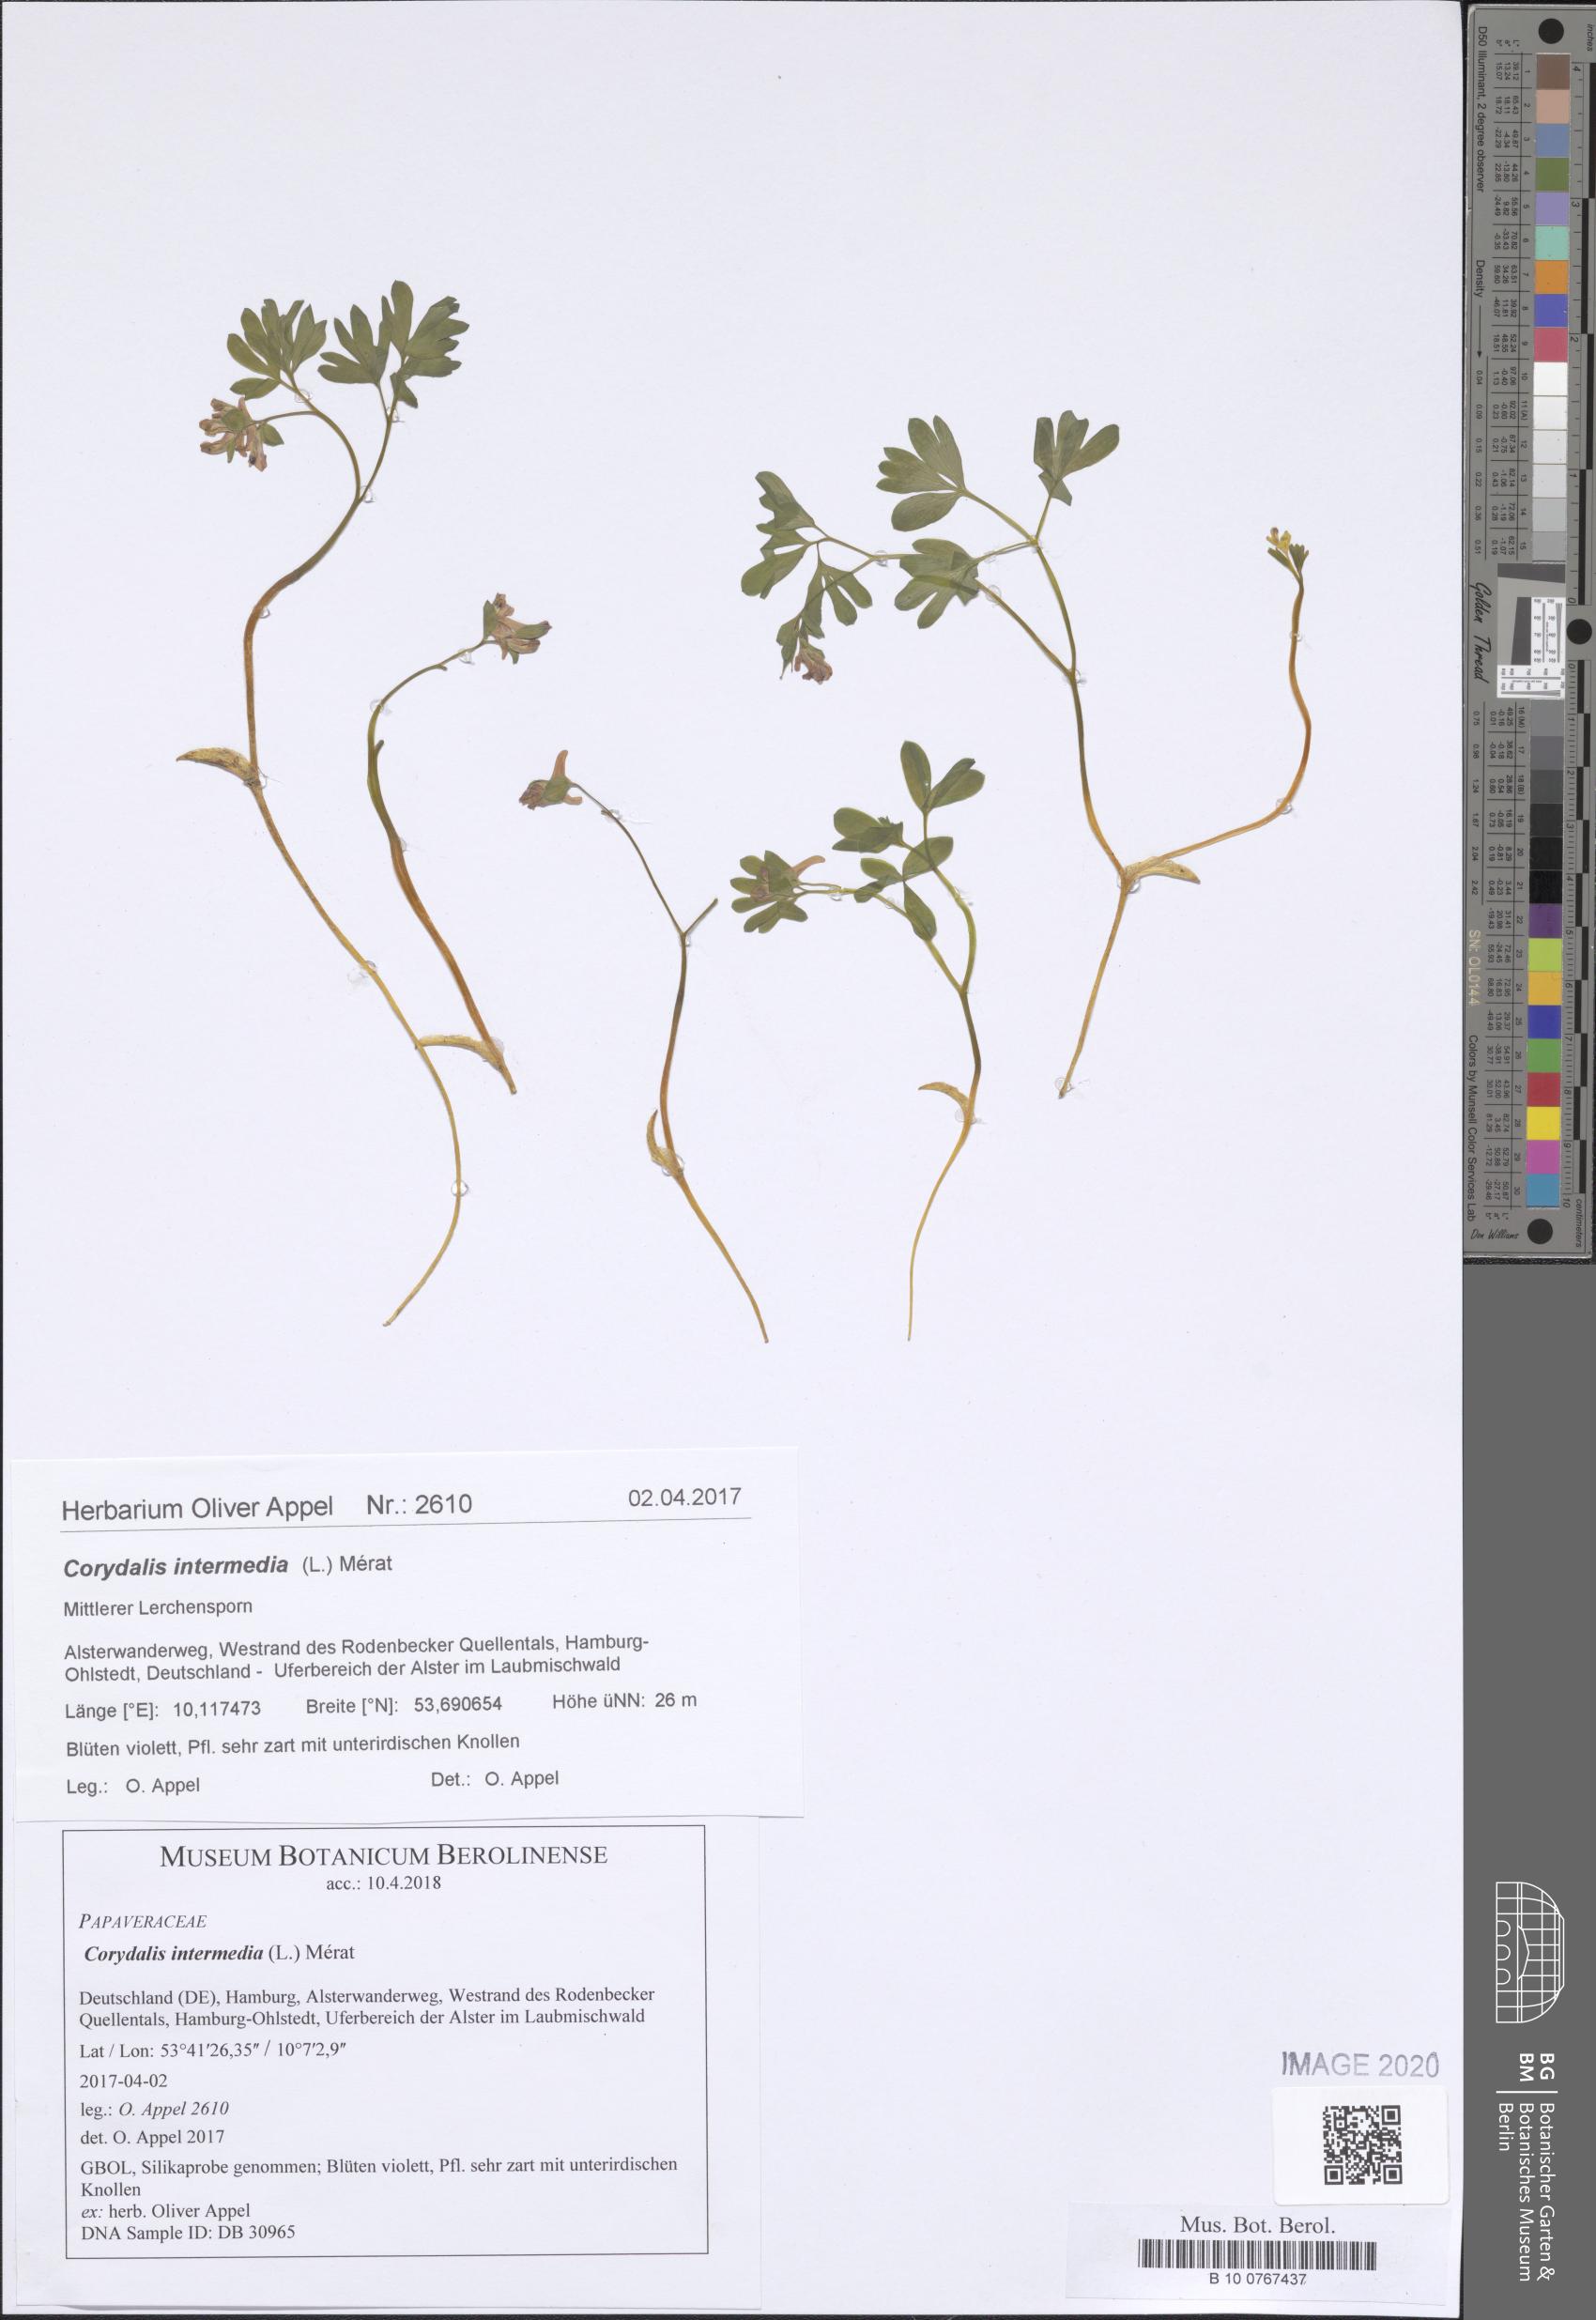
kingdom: Plantae
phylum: Tracheophyta
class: Magnoliopsida
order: Ranunculales
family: Papaveraceae
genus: Corydalis
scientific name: Corydalis intermedia
